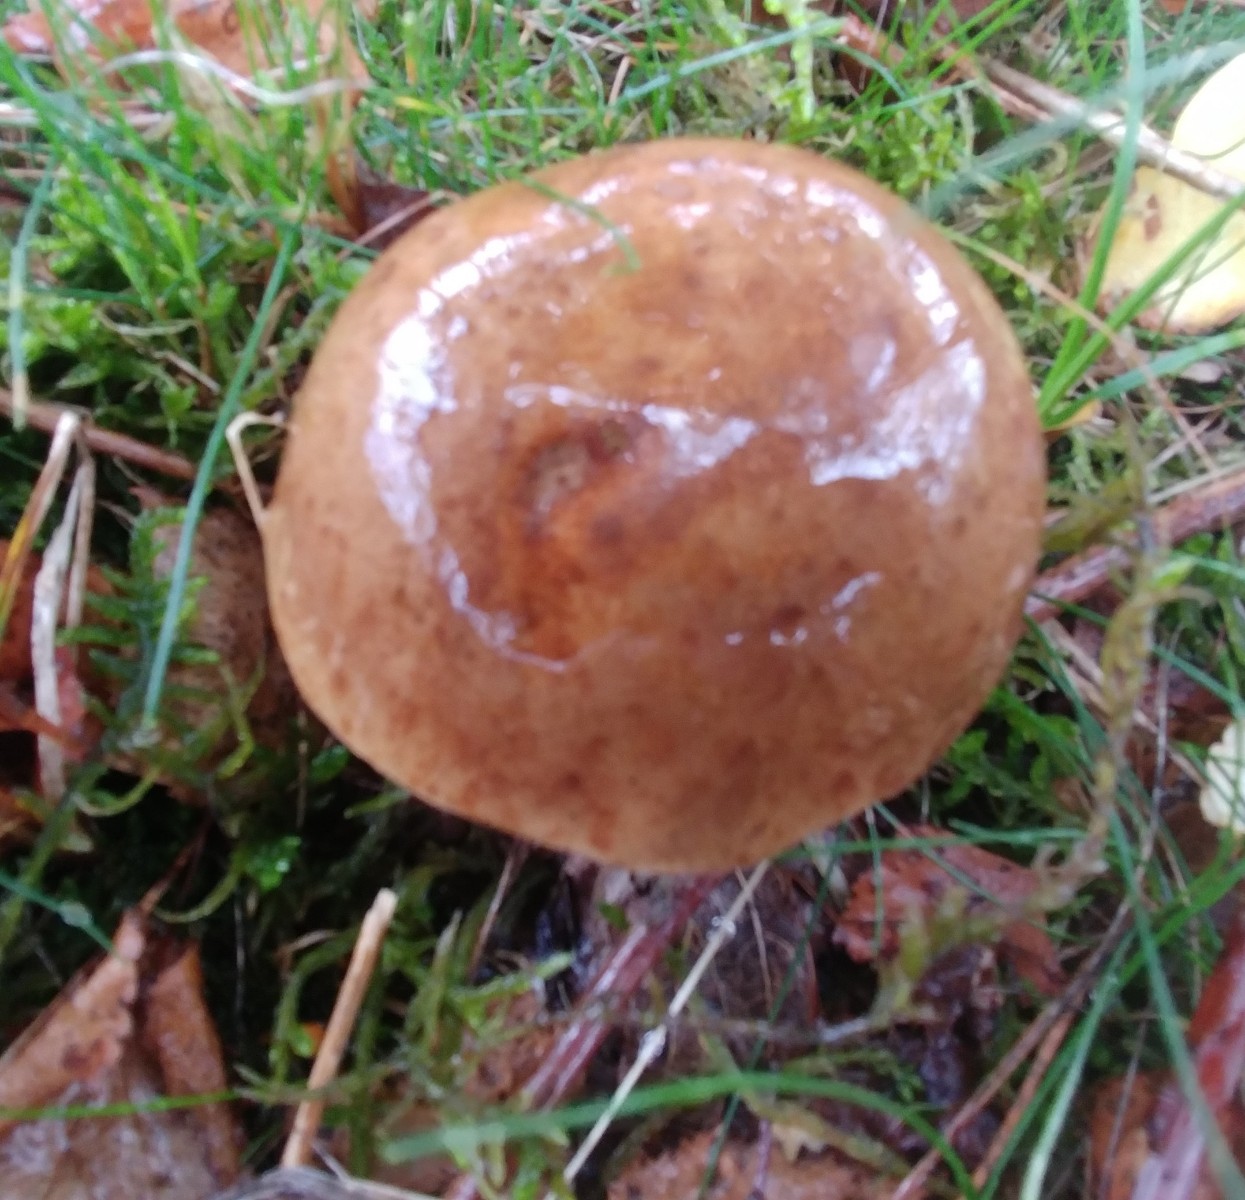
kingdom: Fungi
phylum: Basidiomycota
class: Agaricomycetes
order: Boletales
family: Boletaceae
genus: Imleria
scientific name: Imleria badia
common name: brunstokket rørhat
